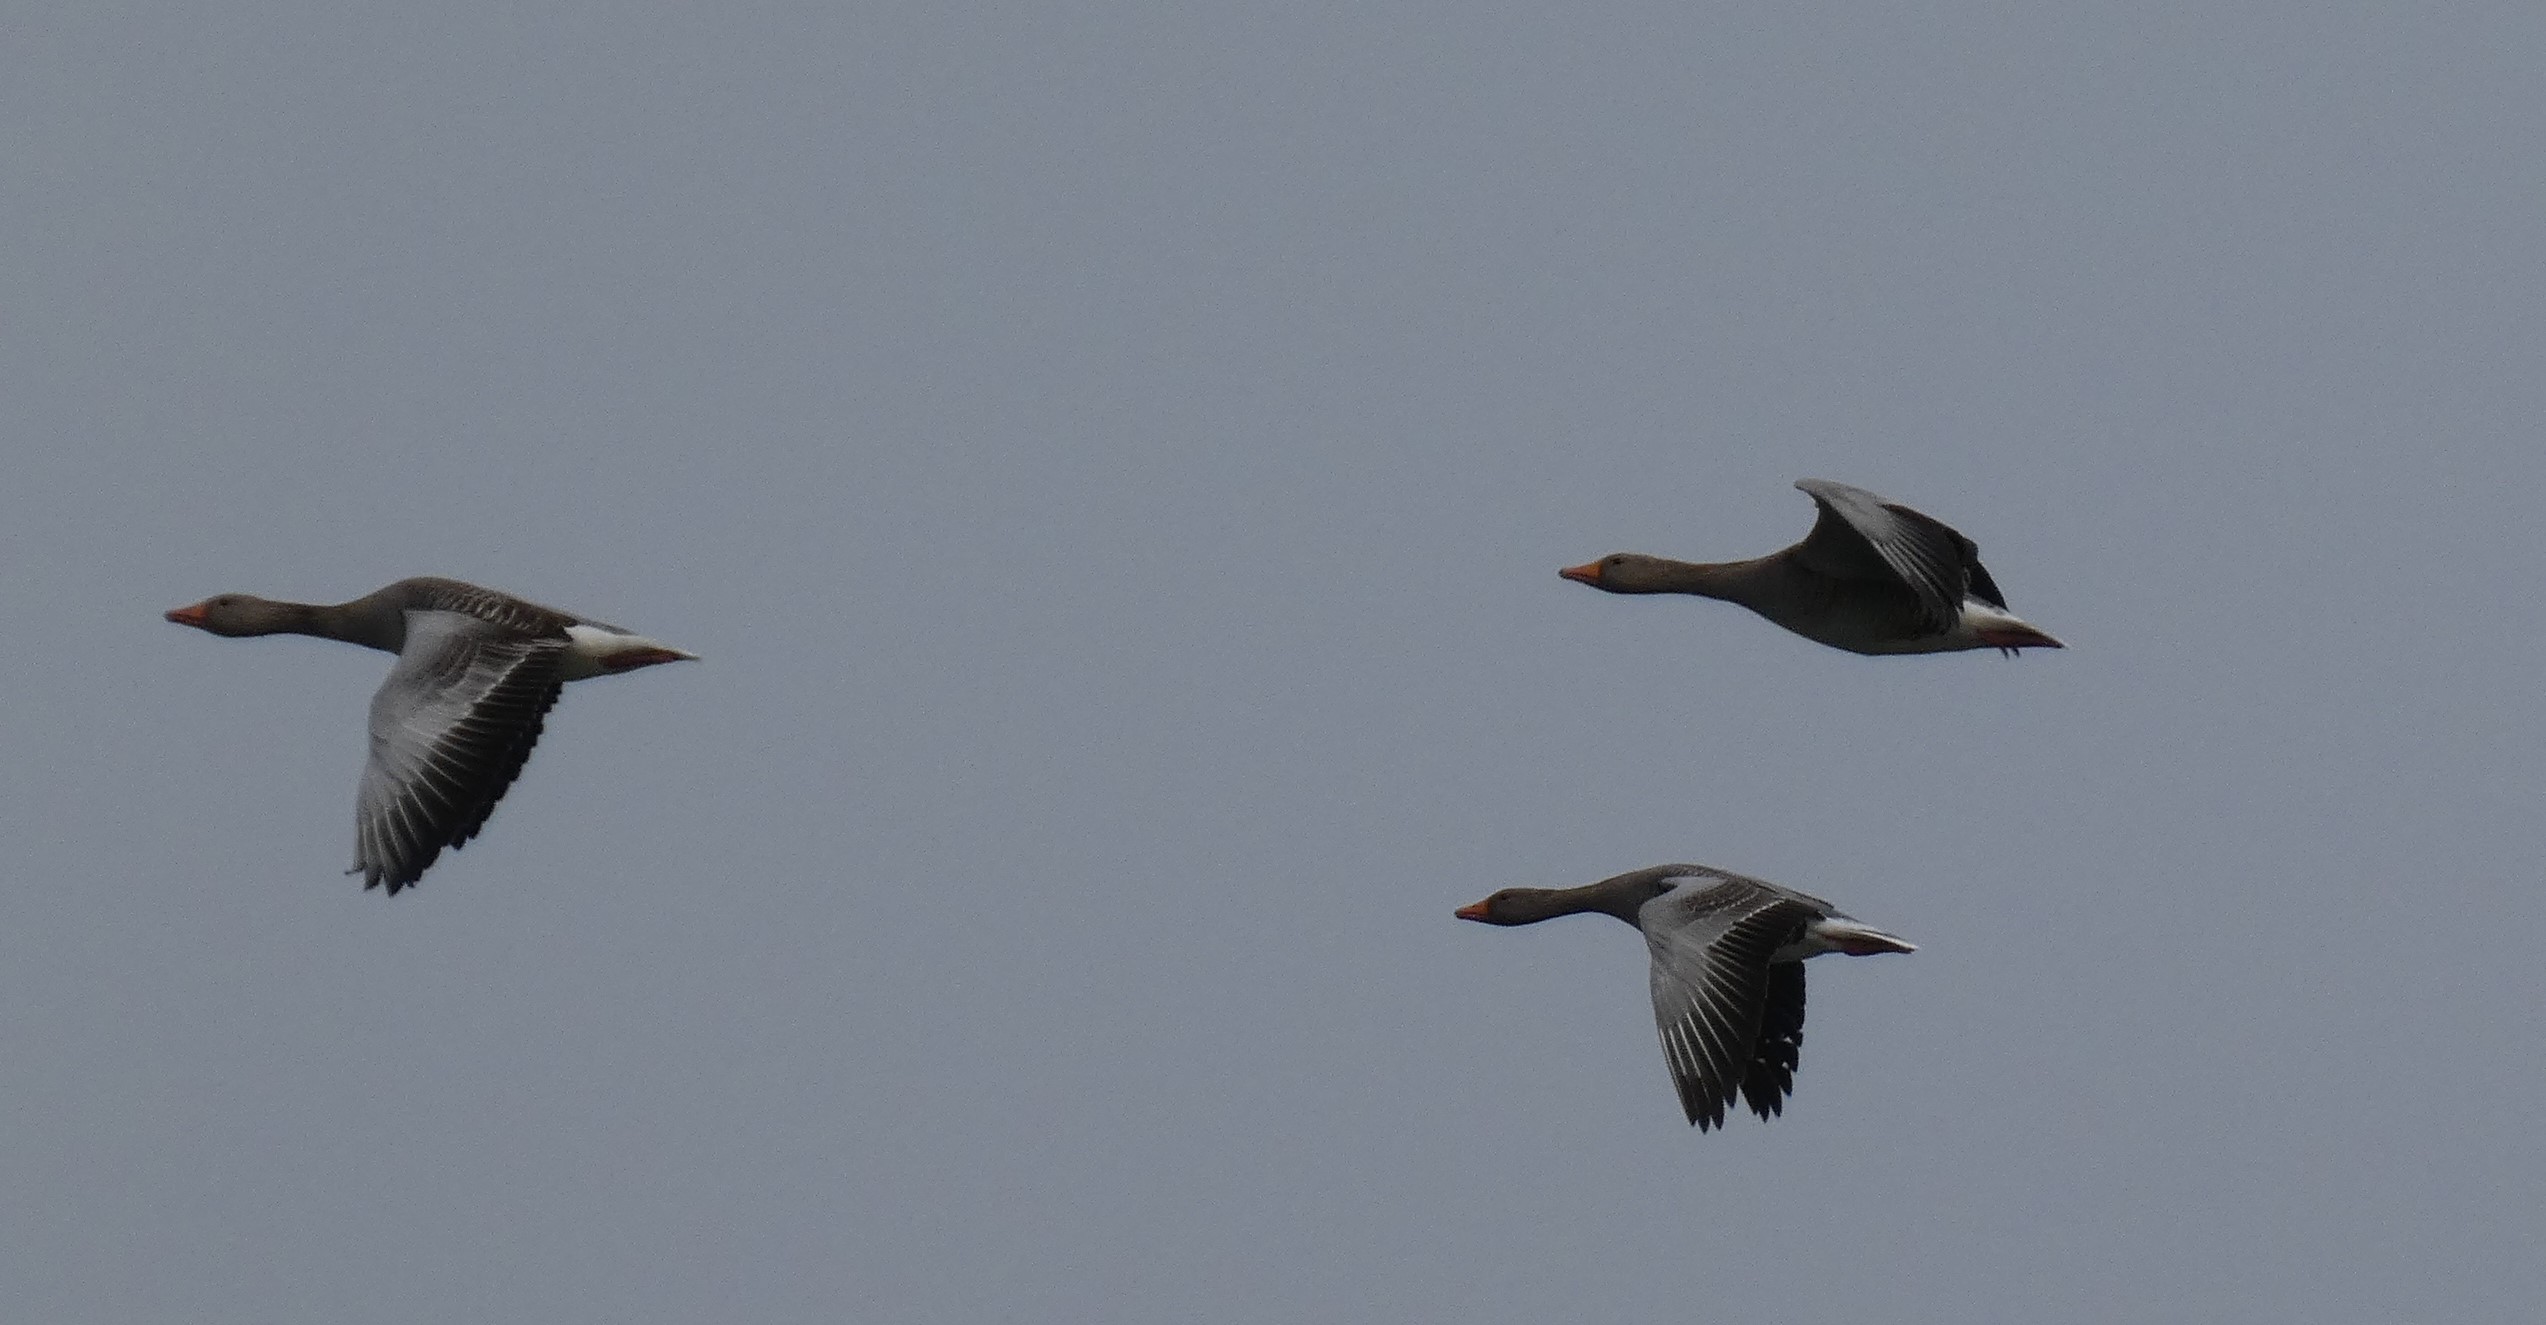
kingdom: Animalia
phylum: Chordata
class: Aves
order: Anseriformes
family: Anatidae
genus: Anser
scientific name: Anser anser
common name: Grågås
